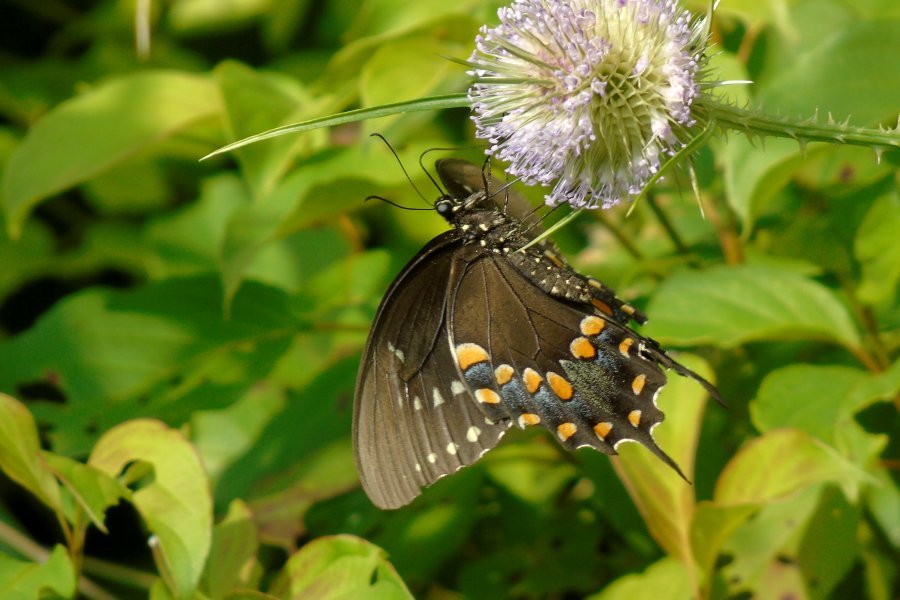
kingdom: Animalia
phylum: Arthropoda
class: Insecta
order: Lepidoptera
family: Papilionidae
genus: Pterourus
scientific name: Pterourus troilus
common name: Spicebush Swallowtail
